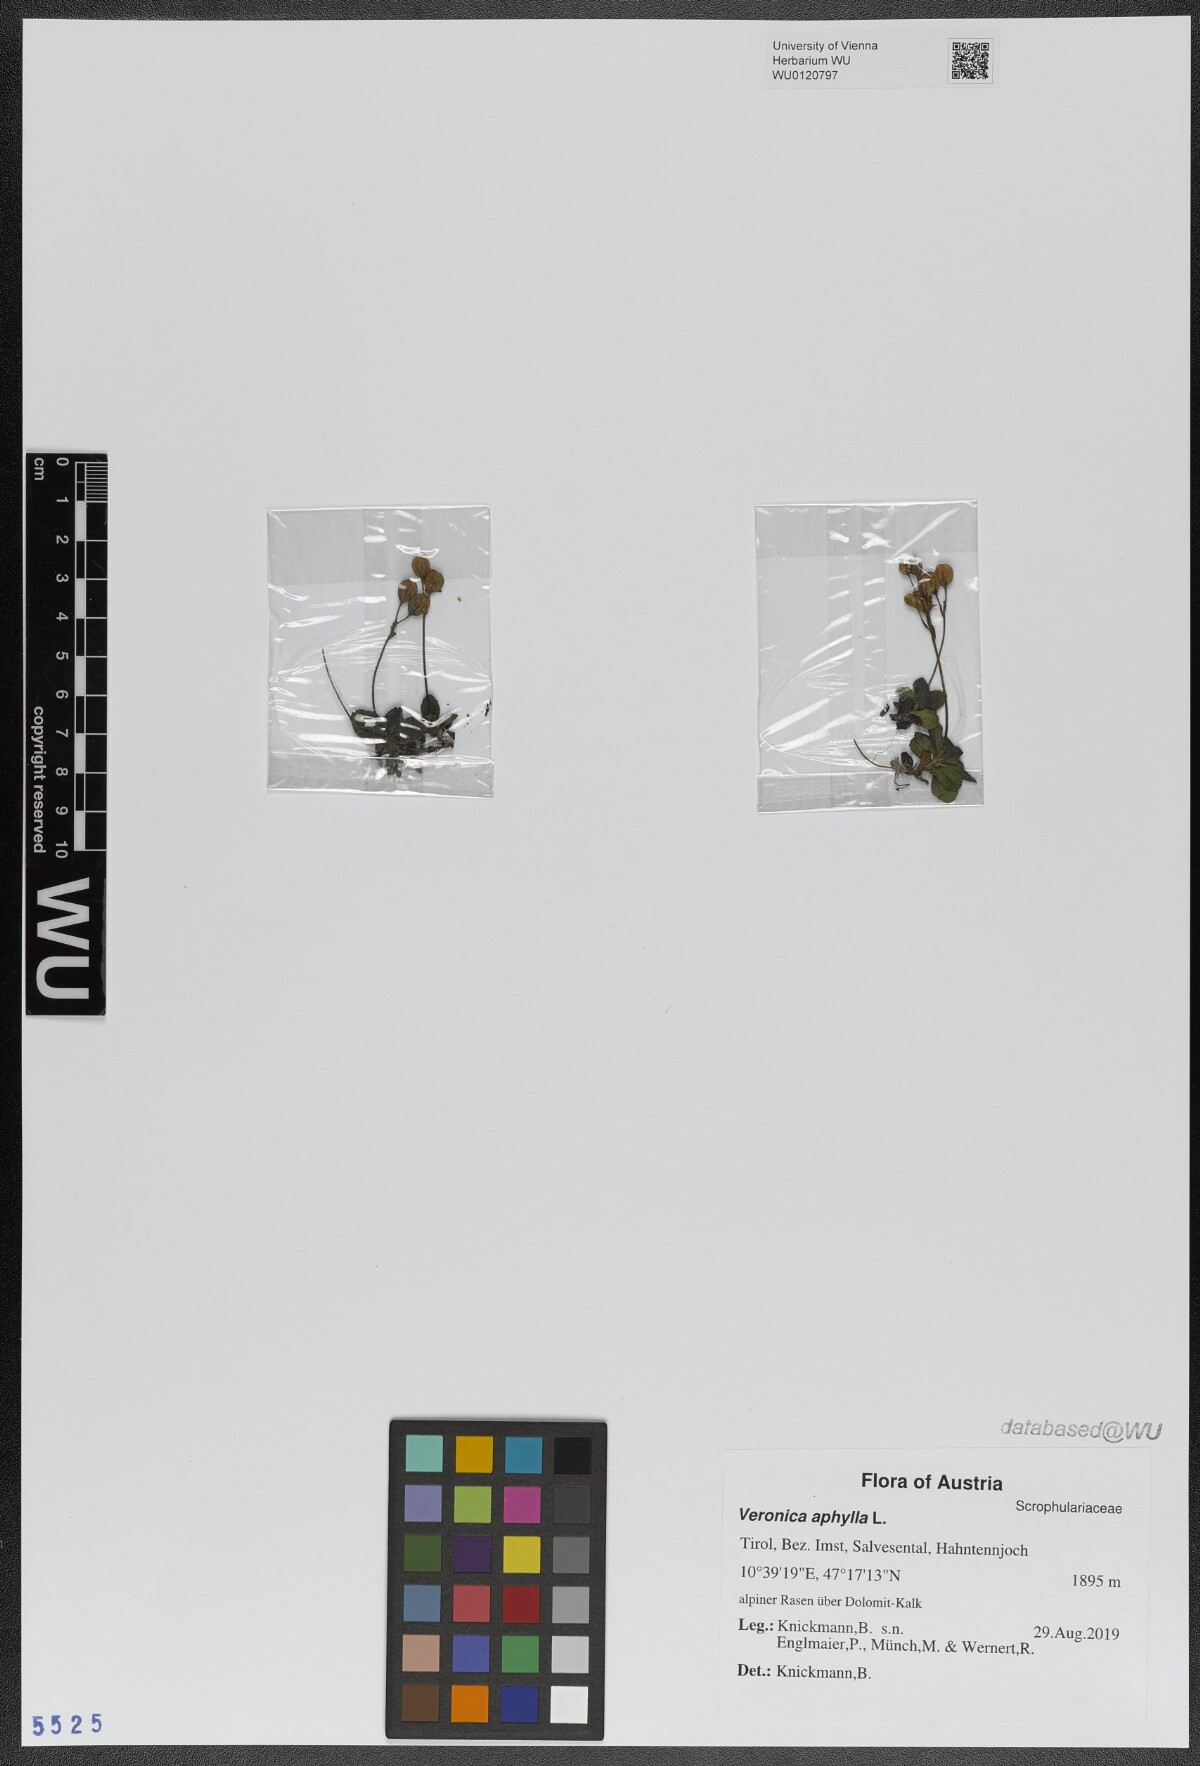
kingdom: Plantae
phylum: Tracheophyta
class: Magnoliopsida
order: Lamiales
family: Plantaginaceae
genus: Veronica
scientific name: Veronica aphylla
